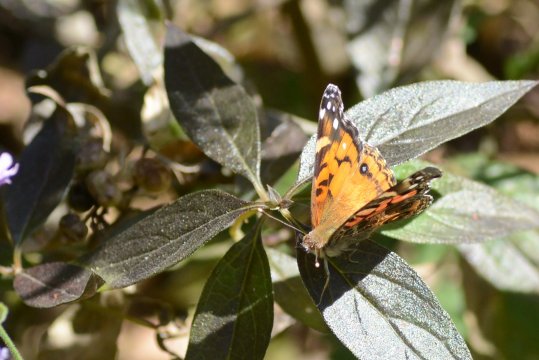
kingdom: Animalia
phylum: Arthropoda
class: Insecta
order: Lepidoptera
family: Nymphalidae
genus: Vanessa
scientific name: Vanessa virginiensis
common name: American Lady
